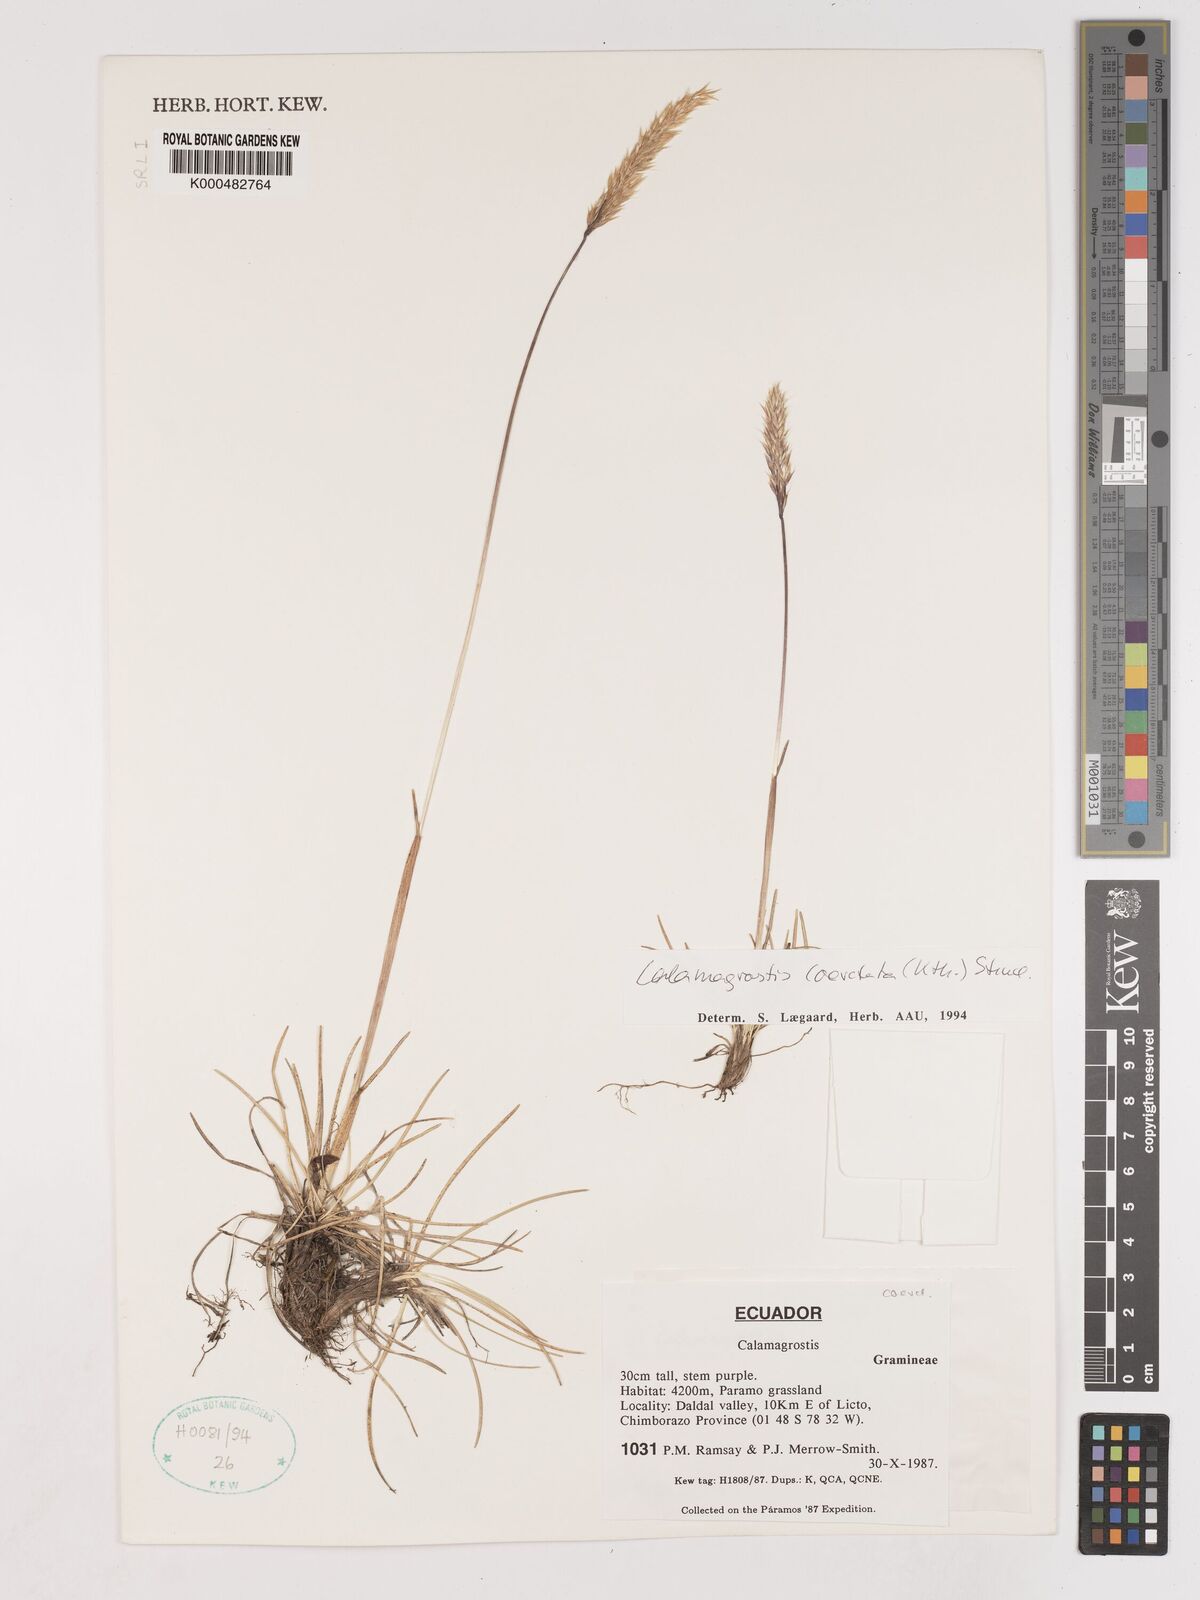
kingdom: Plantae
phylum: Tracheophyta
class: Liliopsida
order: Poales
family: Poaceae
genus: Cinnagrostis
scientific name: Cinnagrostis coarctata
